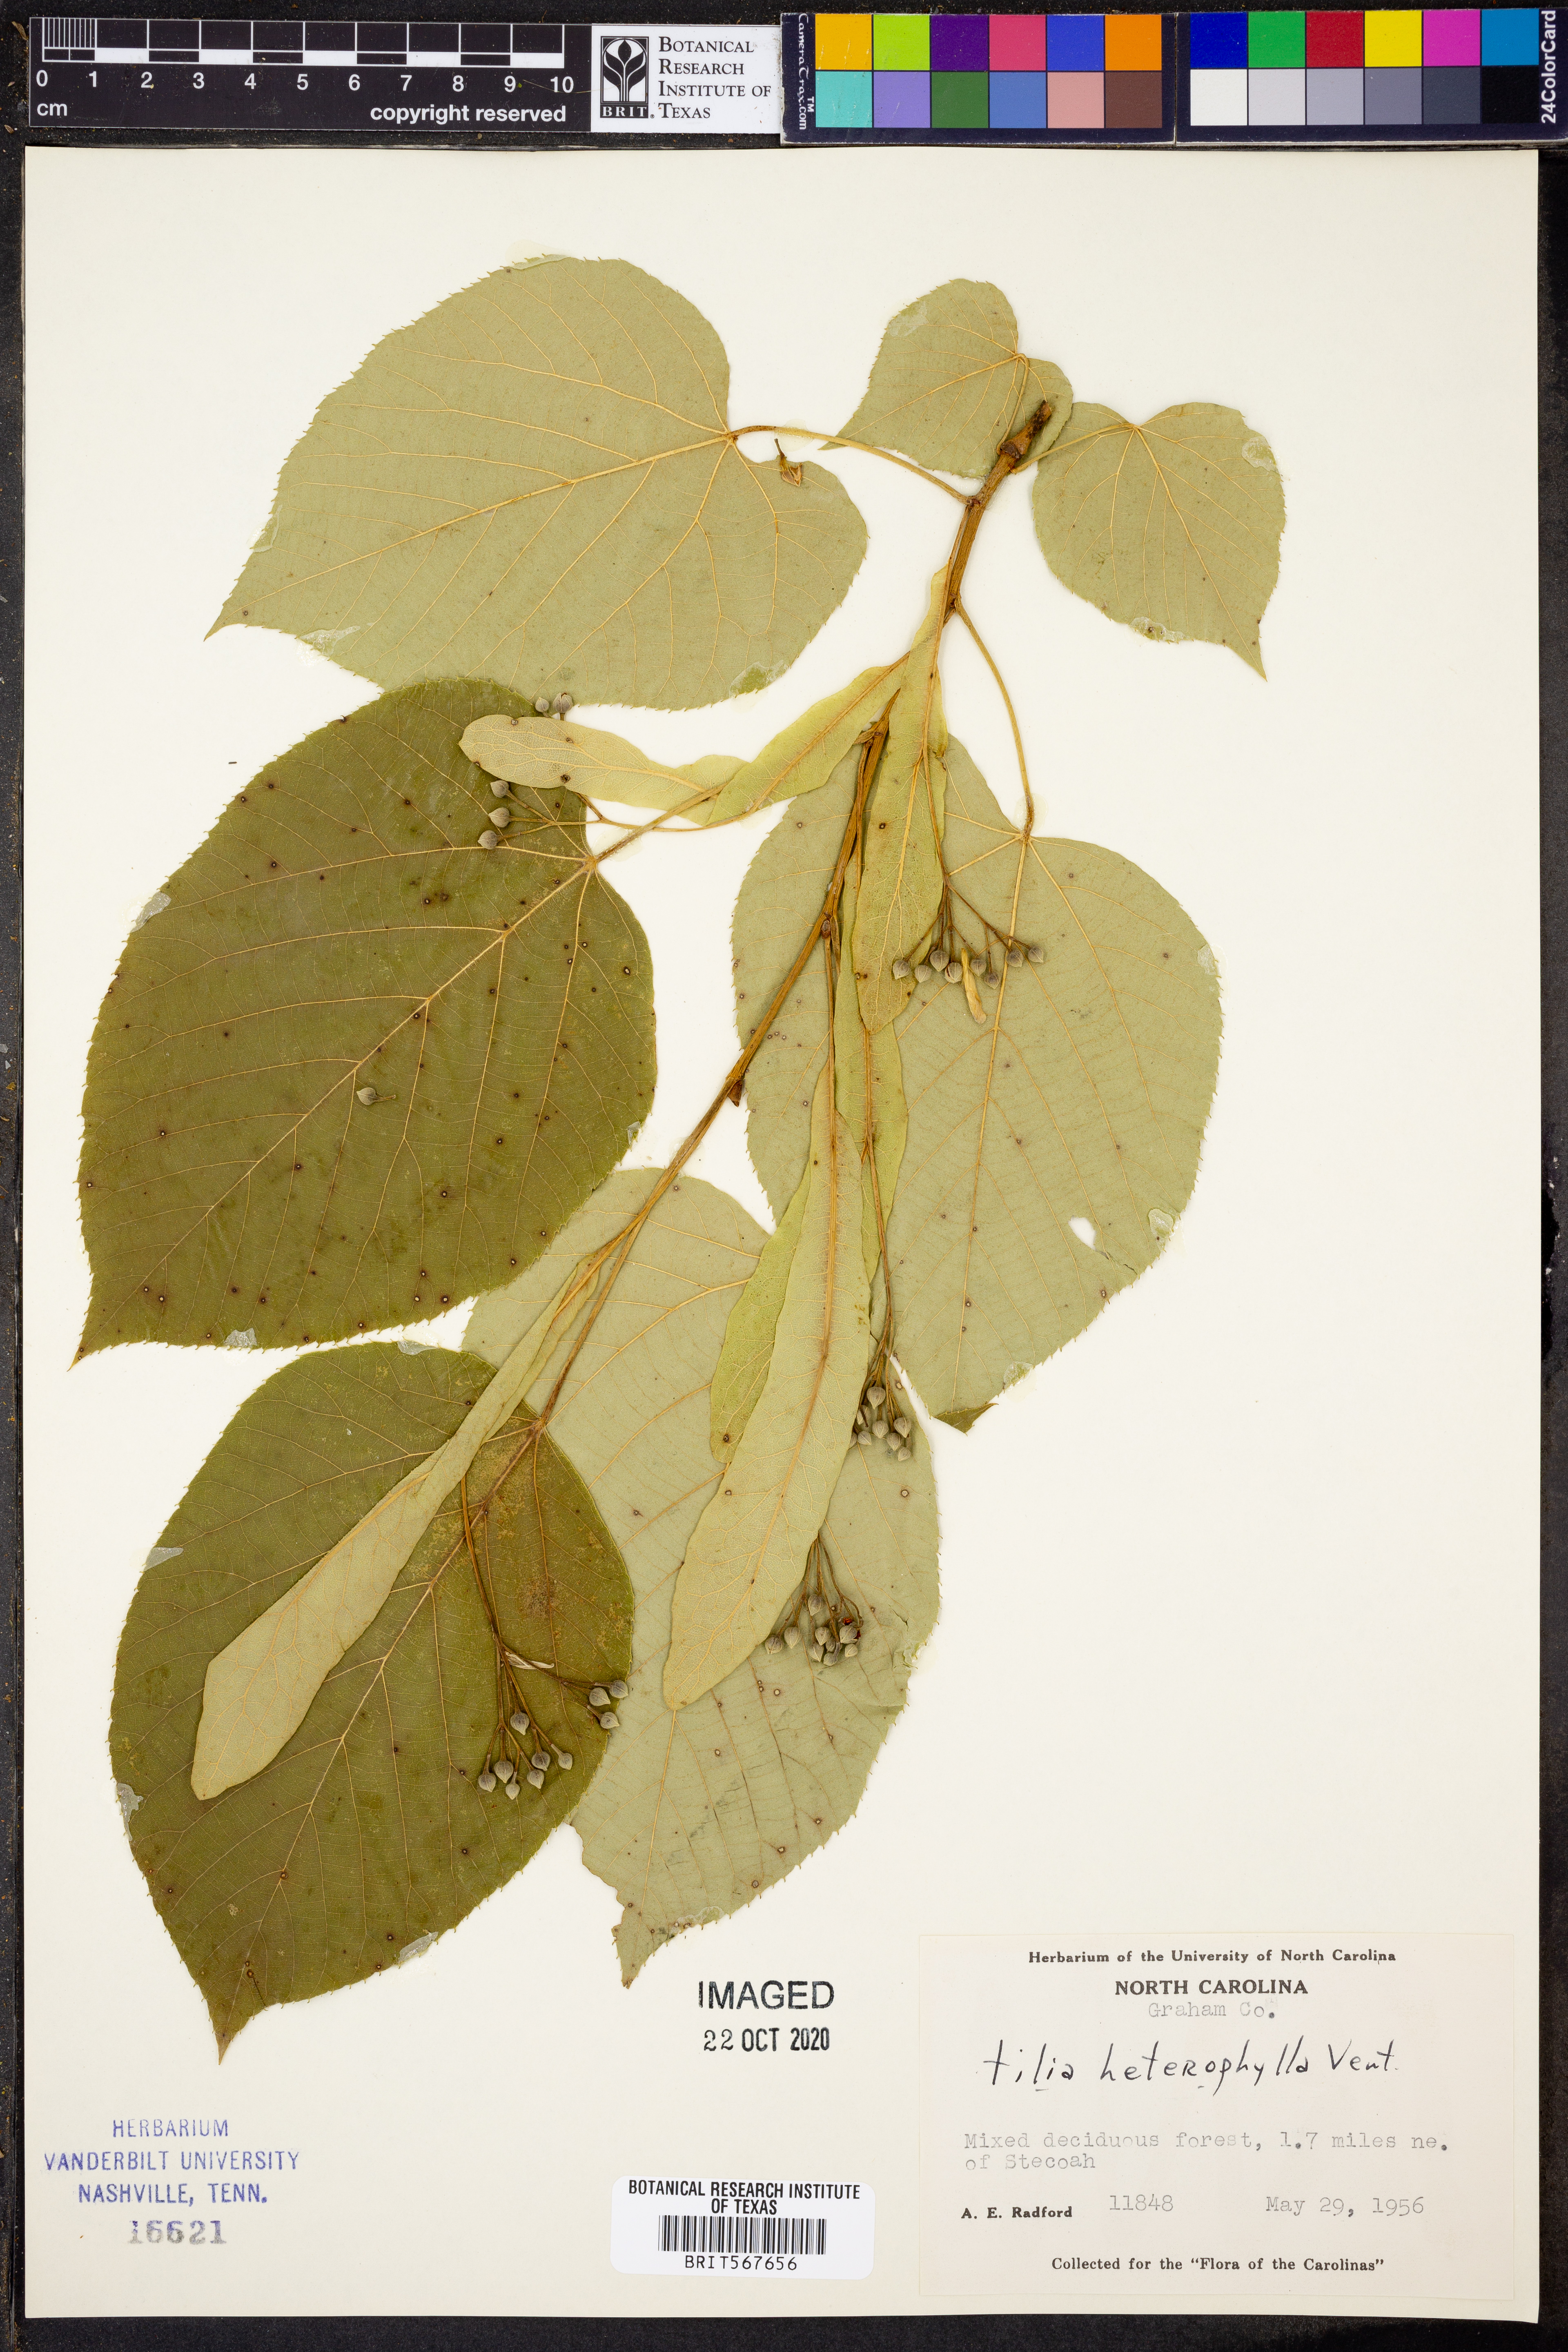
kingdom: Plantae
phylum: Tracheophyta
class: Magnoliopsida
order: Malvales
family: Malvaceae
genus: Tilia
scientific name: Tilia americana
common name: Basswood
